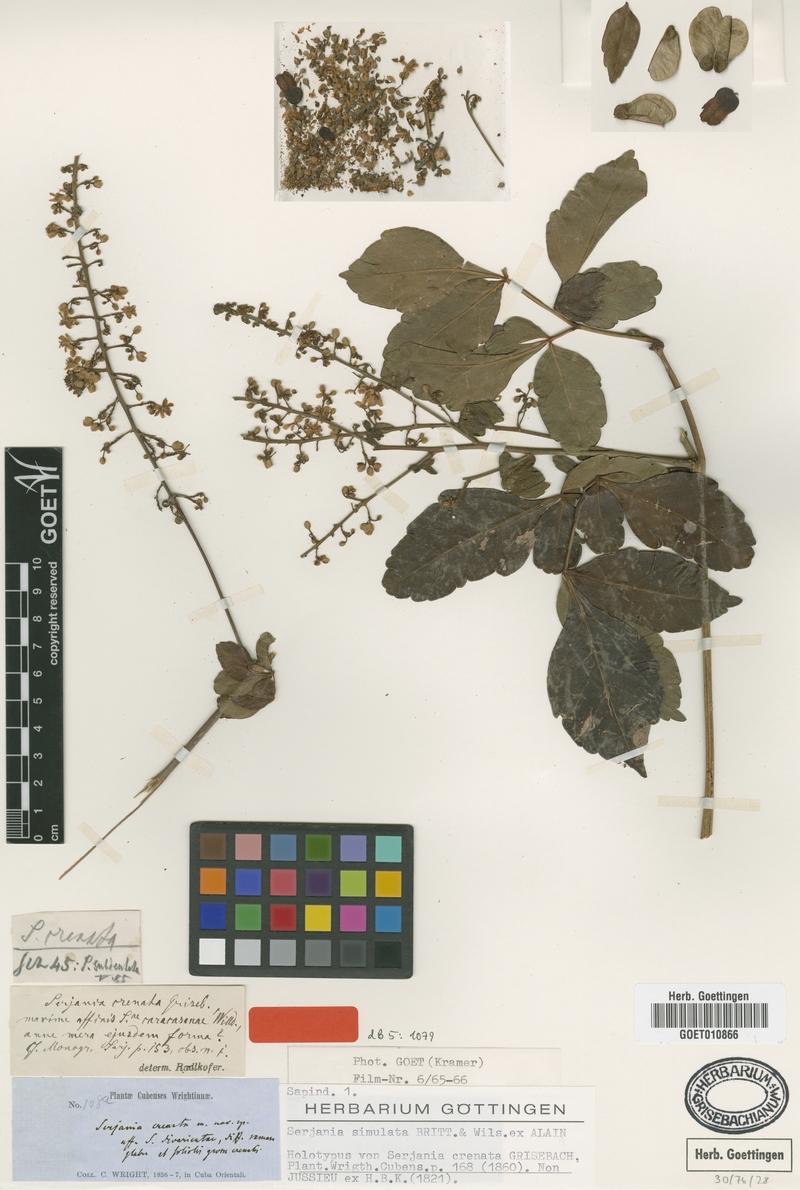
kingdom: Plantae
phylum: Tracheophyta
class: Magnoliopsida
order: Sapindales
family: Sapindaceae
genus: Serjania
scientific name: Serjania crenata
